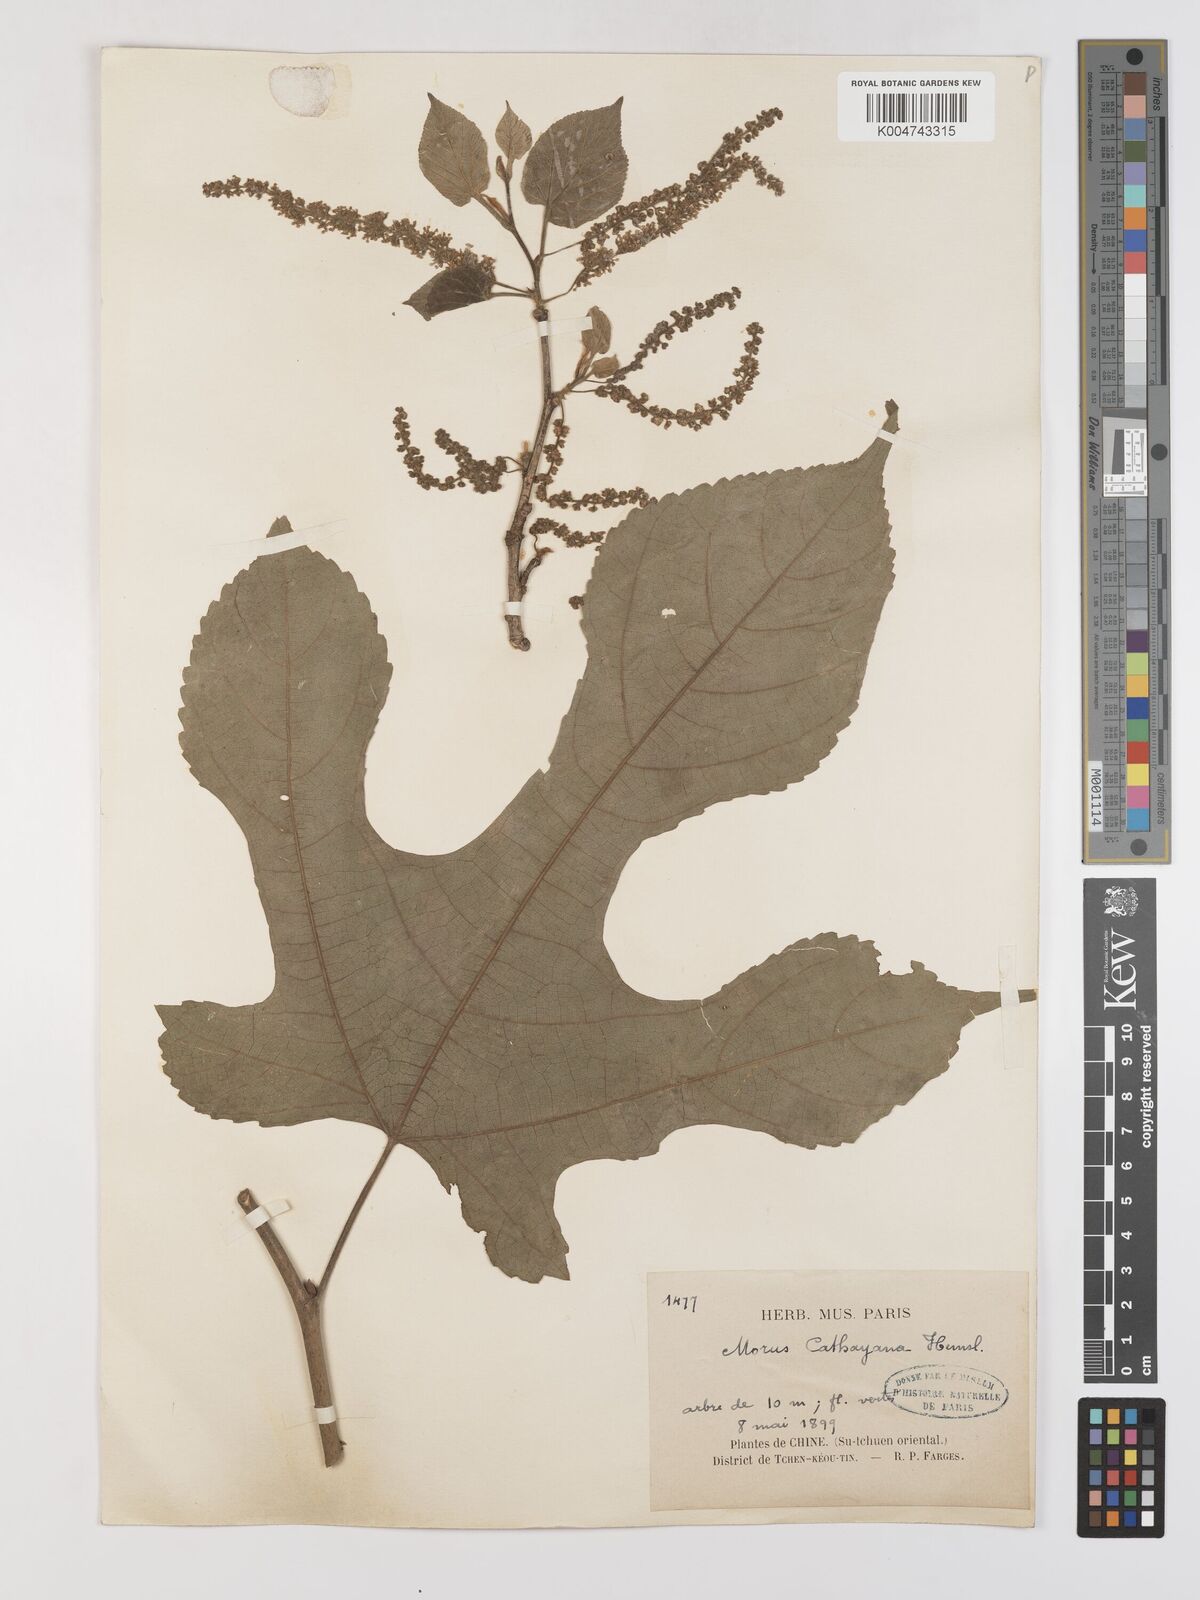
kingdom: Plantae
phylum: Tracheophyta
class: Magnoliopsida
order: Rosales
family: Moraceae
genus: Morus
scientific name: Morus cathayana
